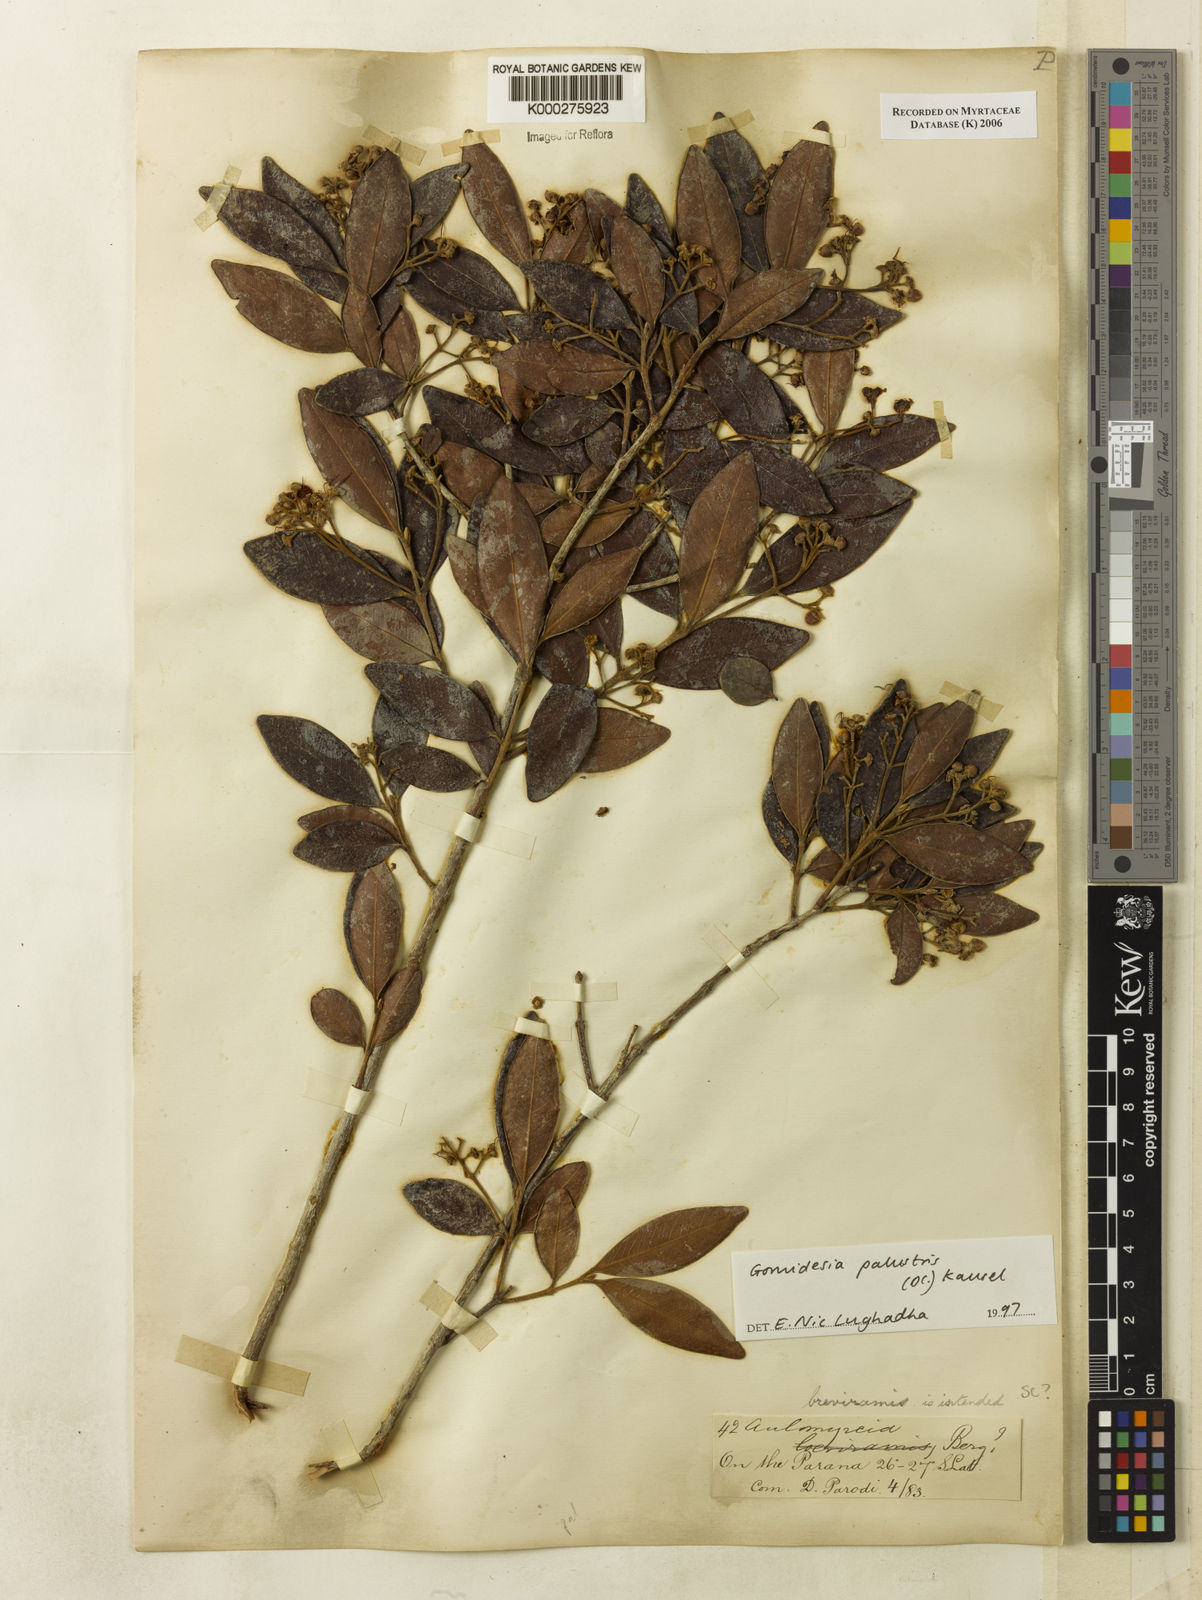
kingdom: Plantae
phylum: Tracheophyta
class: Magnoliopsida
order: Myrtales
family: Myrtaceae
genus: Myrcia
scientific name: Myrcia palustris
